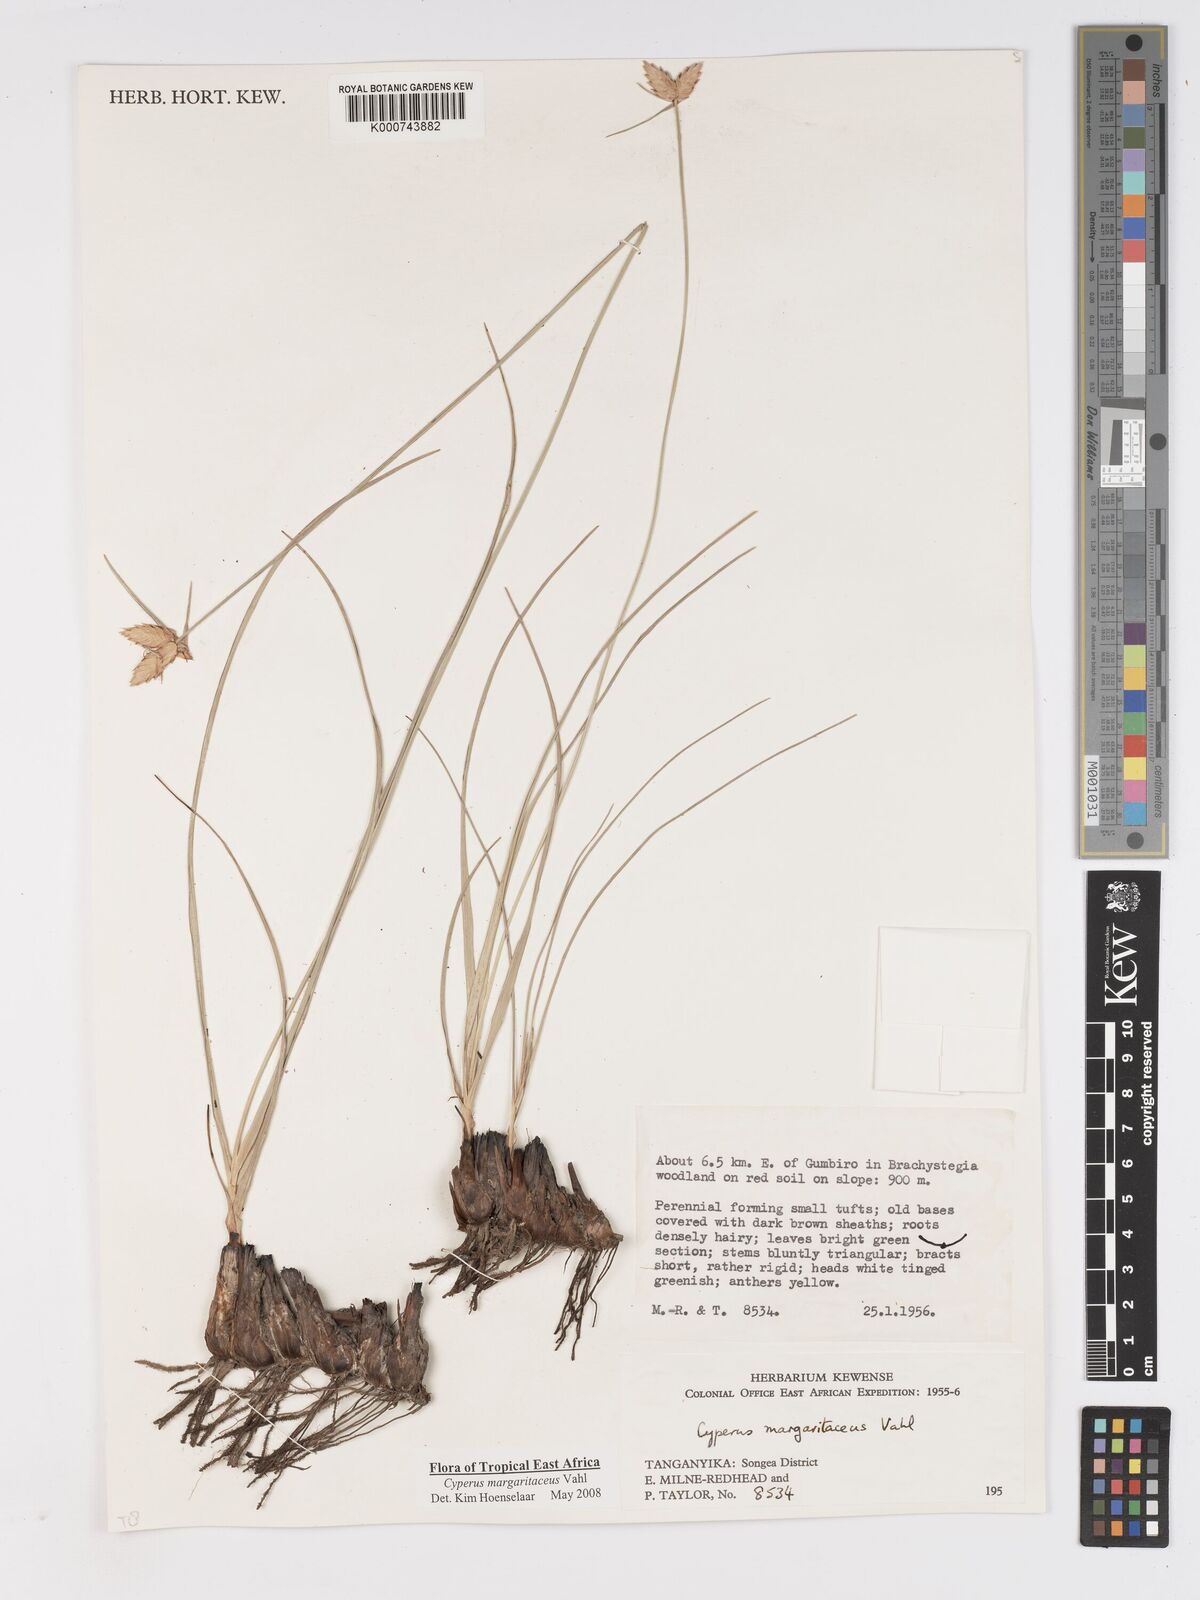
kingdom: Plantae
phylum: Tracheophyta
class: Liliopsida
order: Poales
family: Cyperaceae
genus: Cyperus
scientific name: Cyperus margaritaceus
